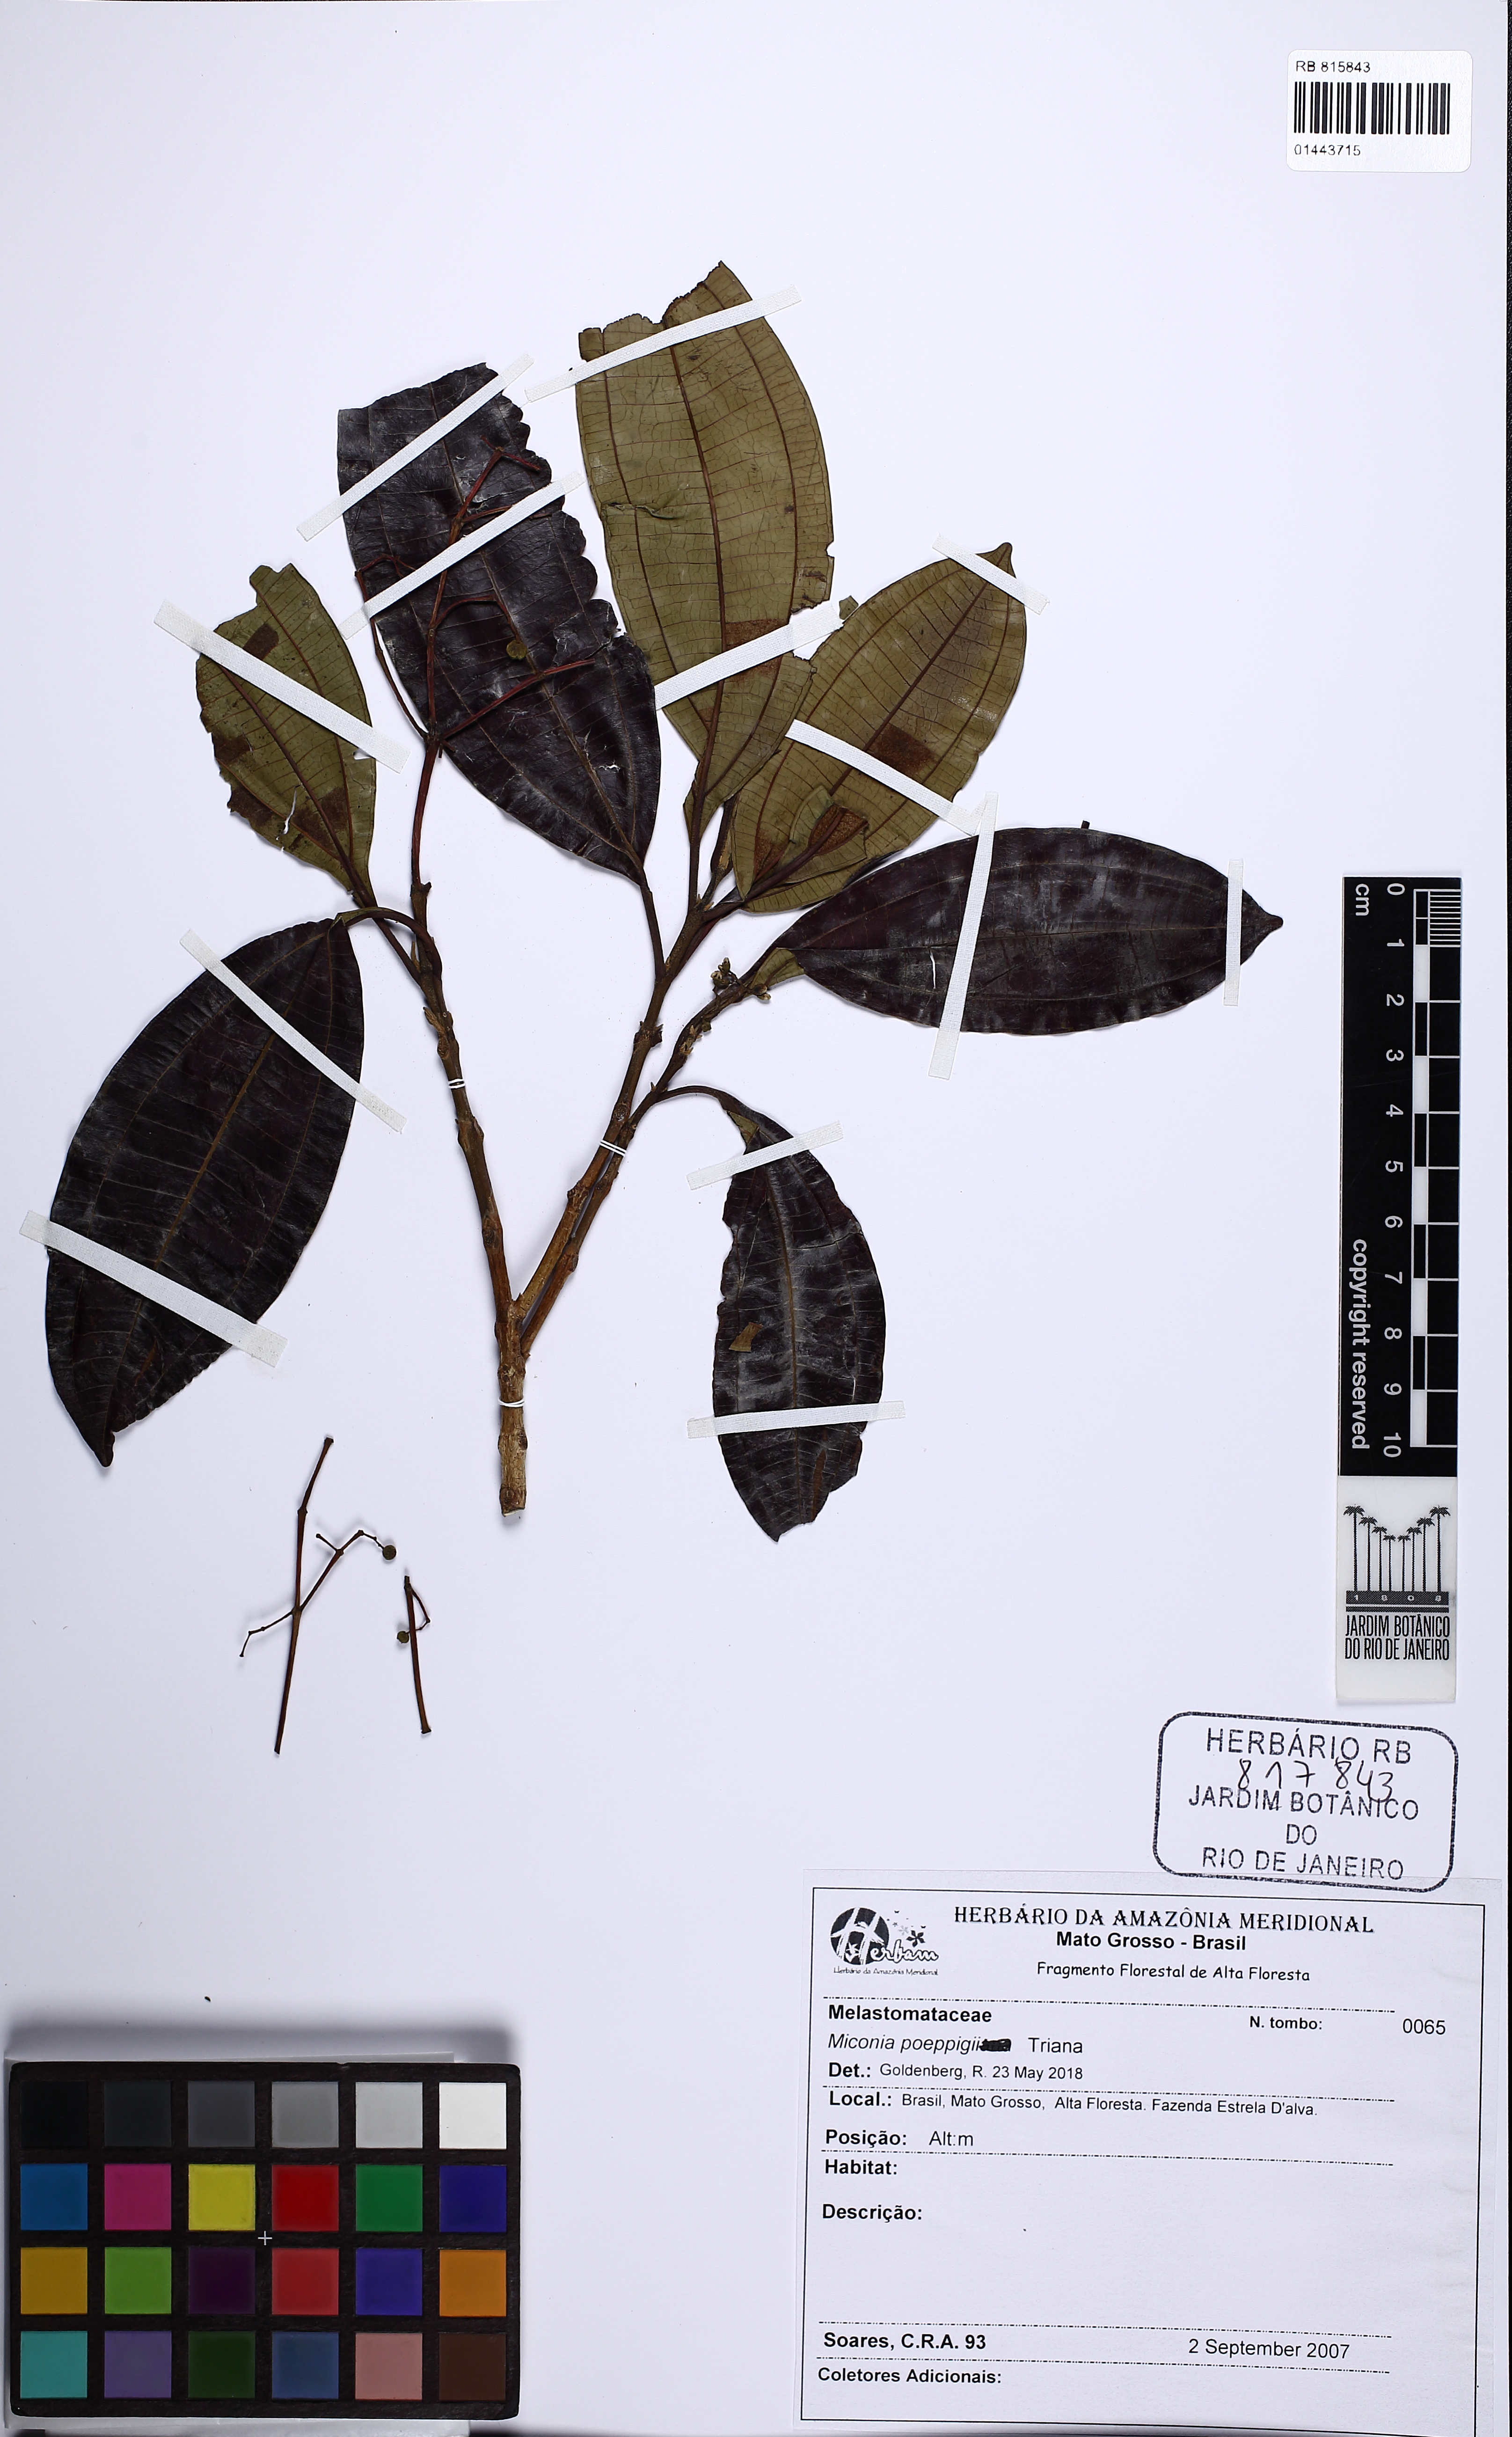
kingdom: Plantae
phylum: Tracheophyta
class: Magnoliopsida
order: Myrtales
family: Melastomataceae
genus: Miconia
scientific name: Miconia poeppigii
